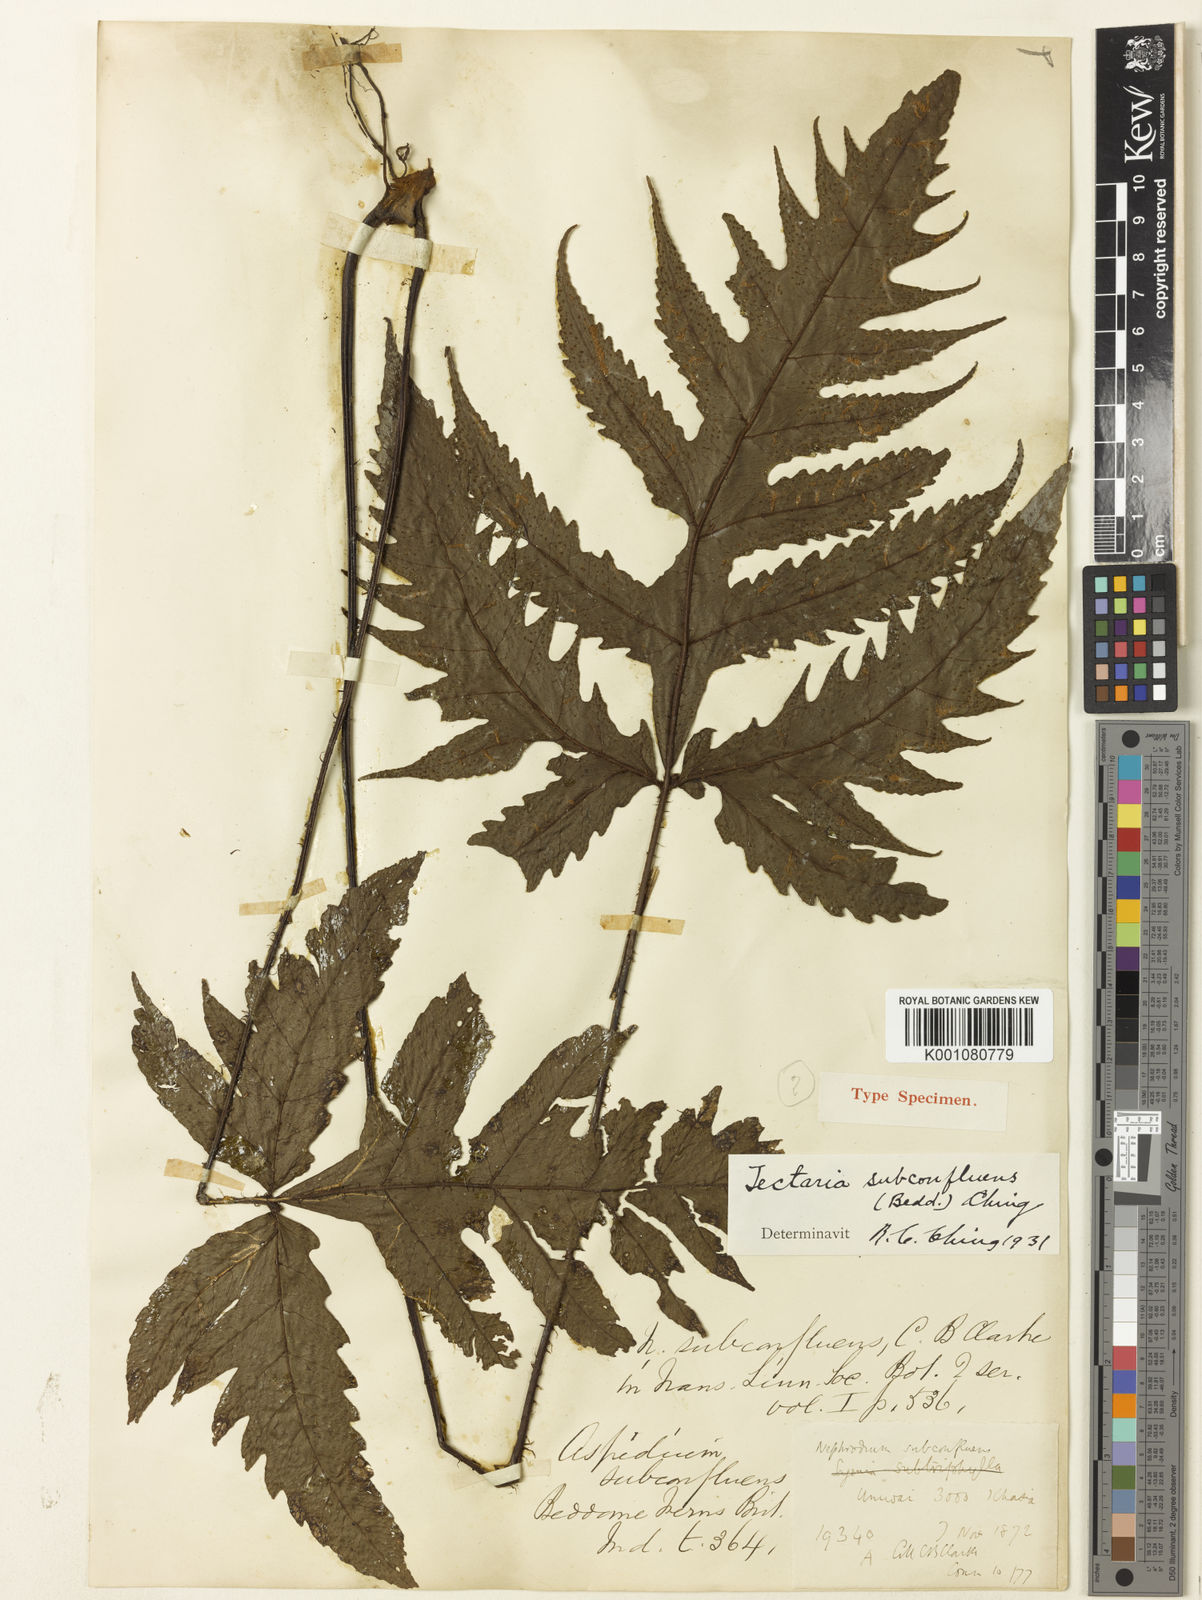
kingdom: Plantae
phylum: Tracheophyta
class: Polypodiopsida
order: Polypodiales
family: Tectariaceae
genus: Tectaria
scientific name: Tectaria subconfluens
